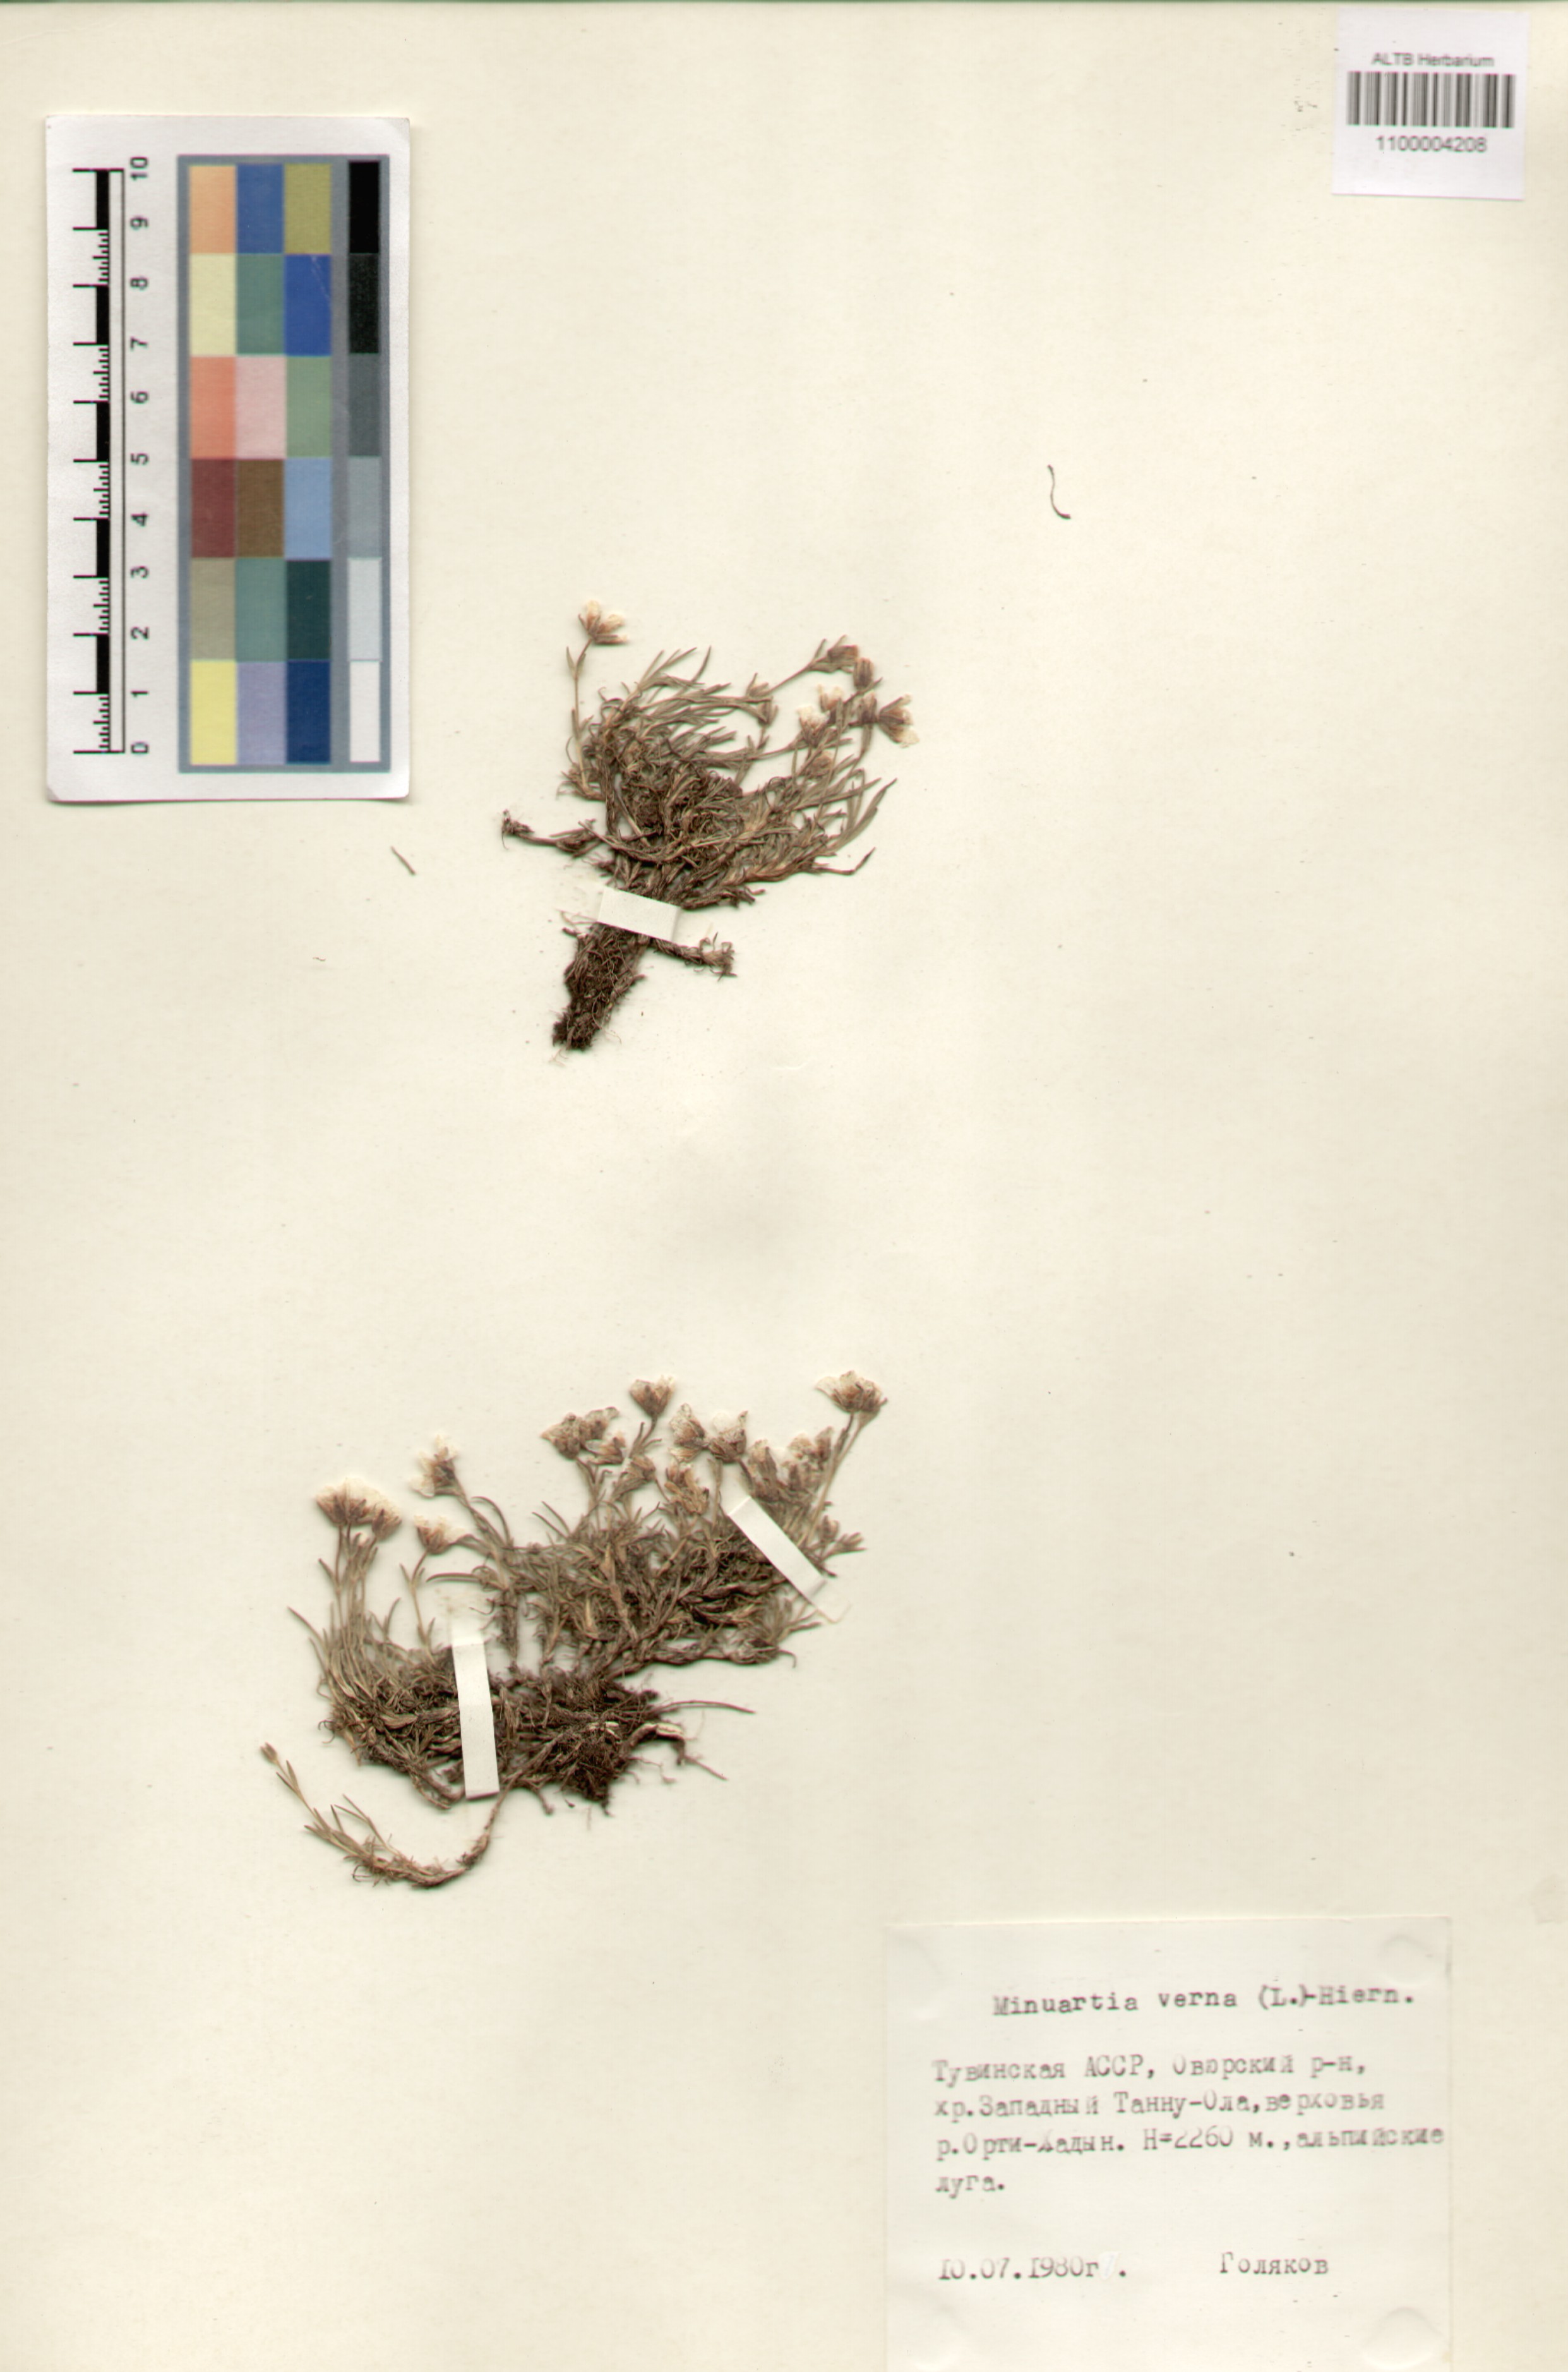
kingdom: Plantae
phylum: Tracheophyta
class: Magnoliopsida
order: Caryophyllales
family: Caryophyllaceae
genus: Sabulina
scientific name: Sabulina verna
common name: Spring sandwort
